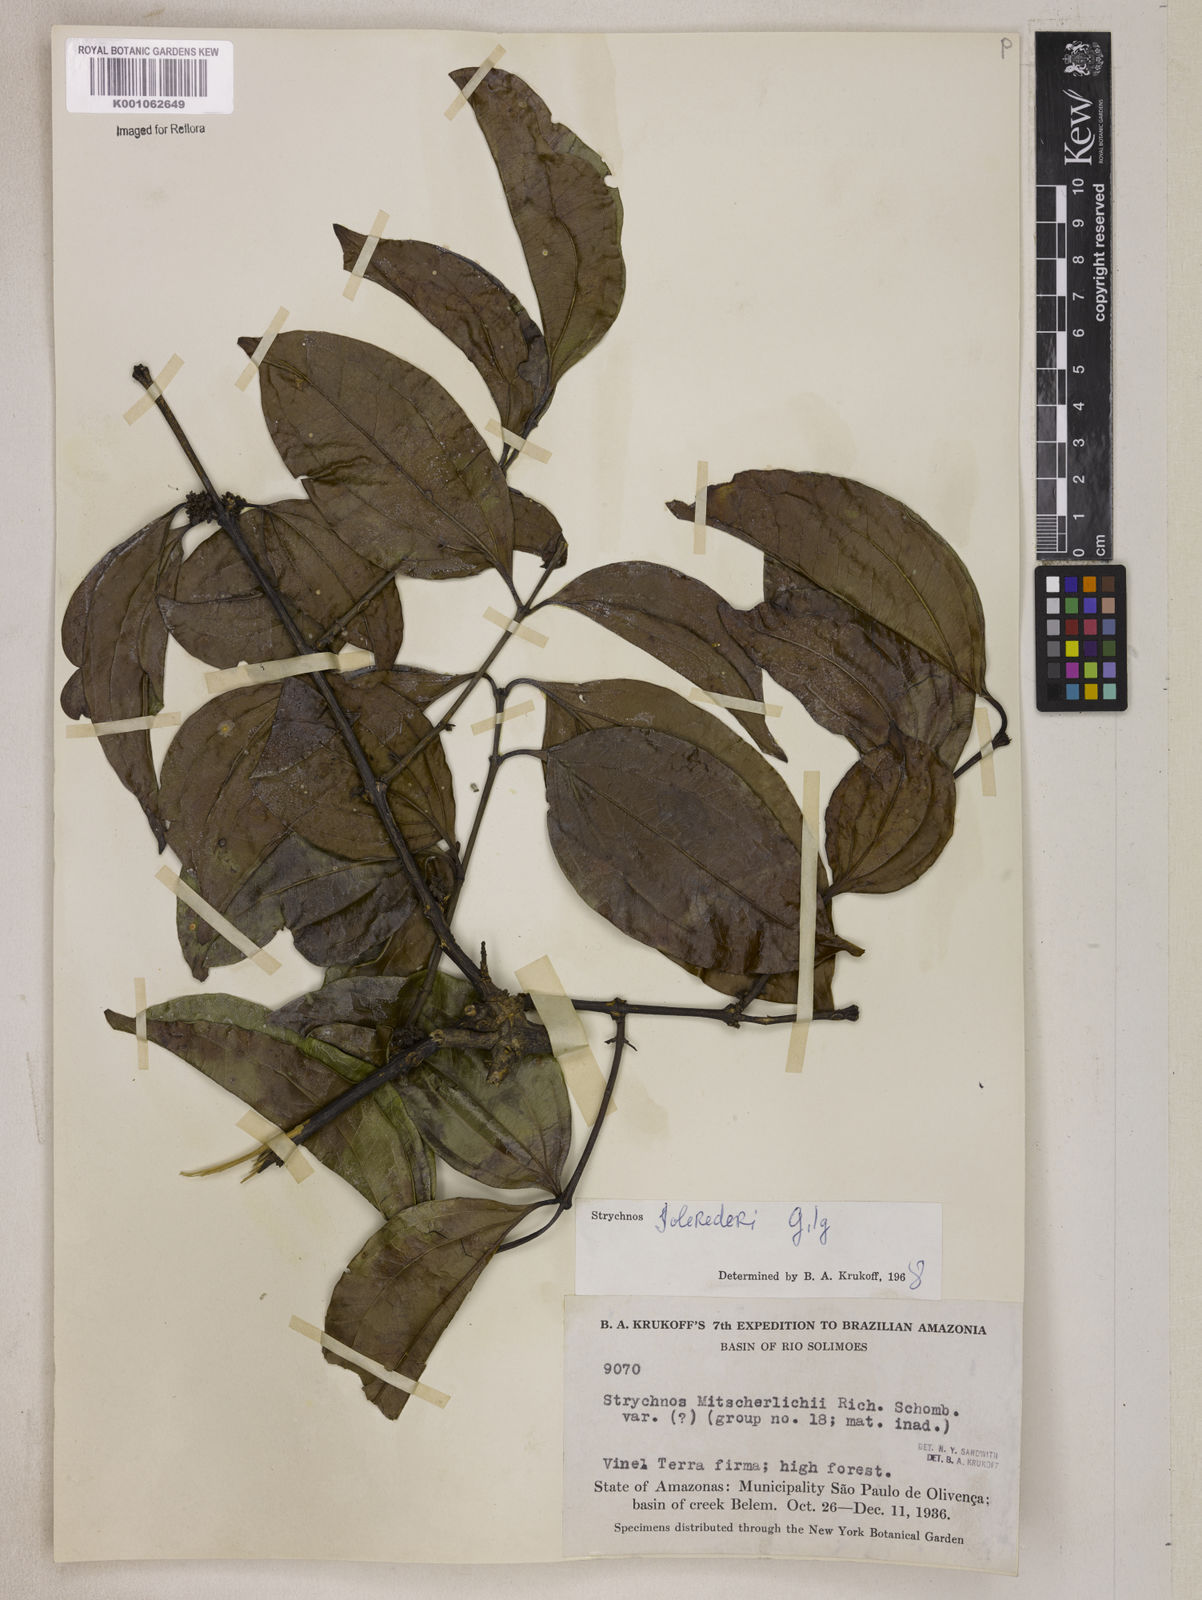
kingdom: Plantae
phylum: Tracheophyta
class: Magnoliopsida
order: Gentianales
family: Loganiaceae
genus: Strychnos
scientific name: Strychnos solerederi
